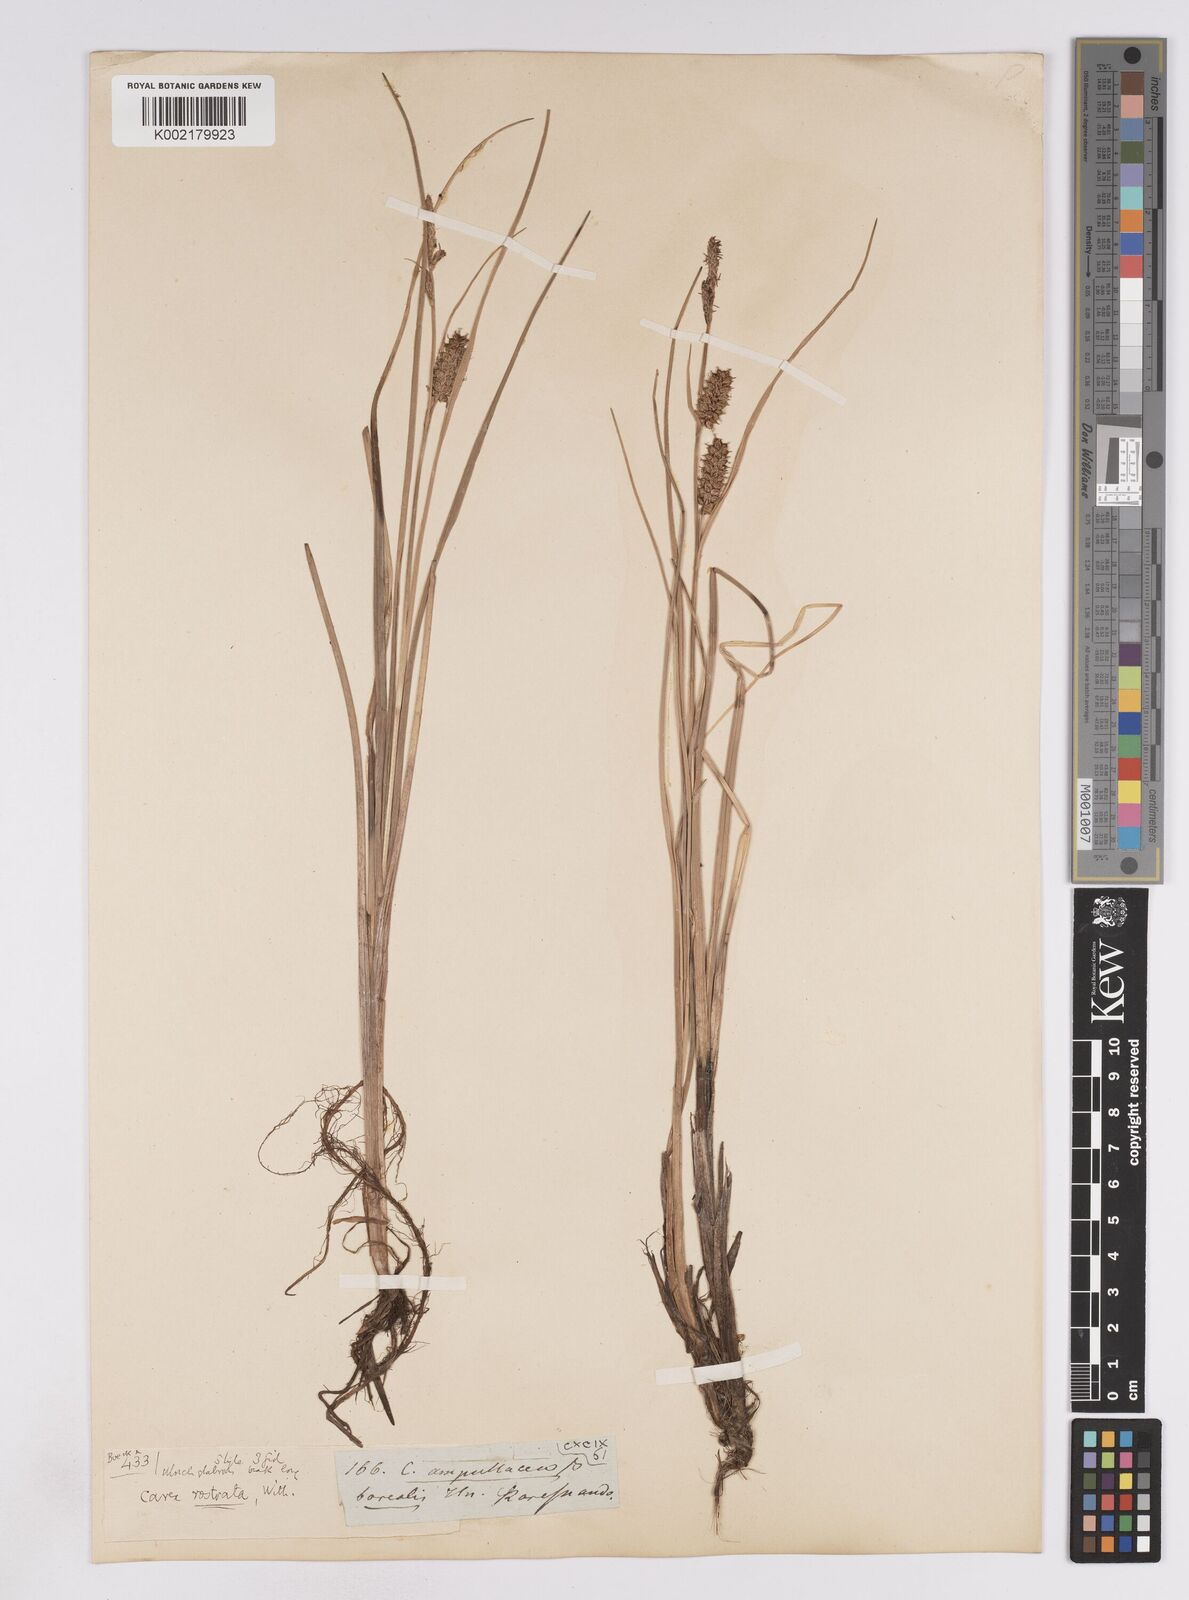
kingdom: Plantae
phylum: Tracheophyta
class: Liliopsida
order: Poales
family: Cyperaceae
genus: Carex
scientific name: Carex rostrata
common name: Bottle sedge
